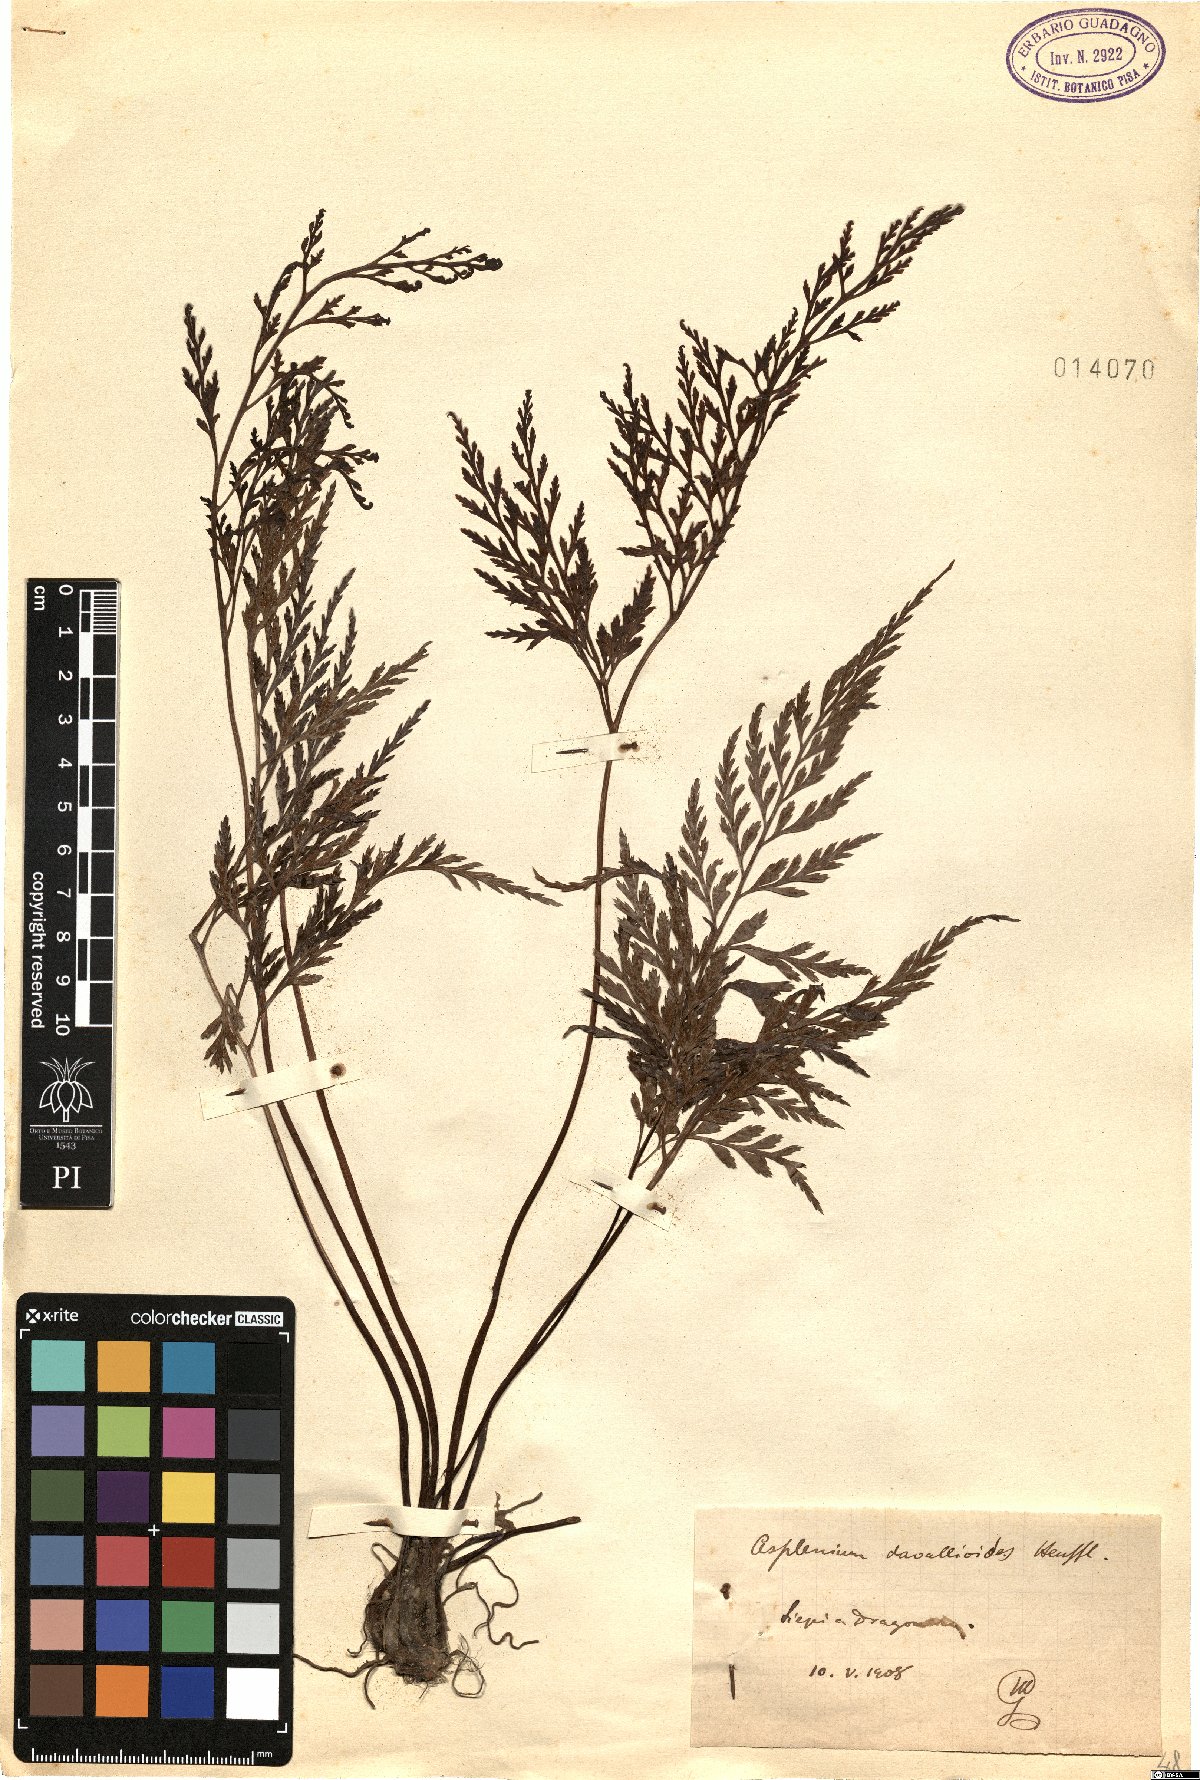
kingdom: Plantae
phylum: Tracheophyta
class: Polypodiopsida
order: Polypodiales
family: Aspleniaceae
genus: Asplenium
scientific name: Asplenium onopteris
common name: Irish spleenwort
